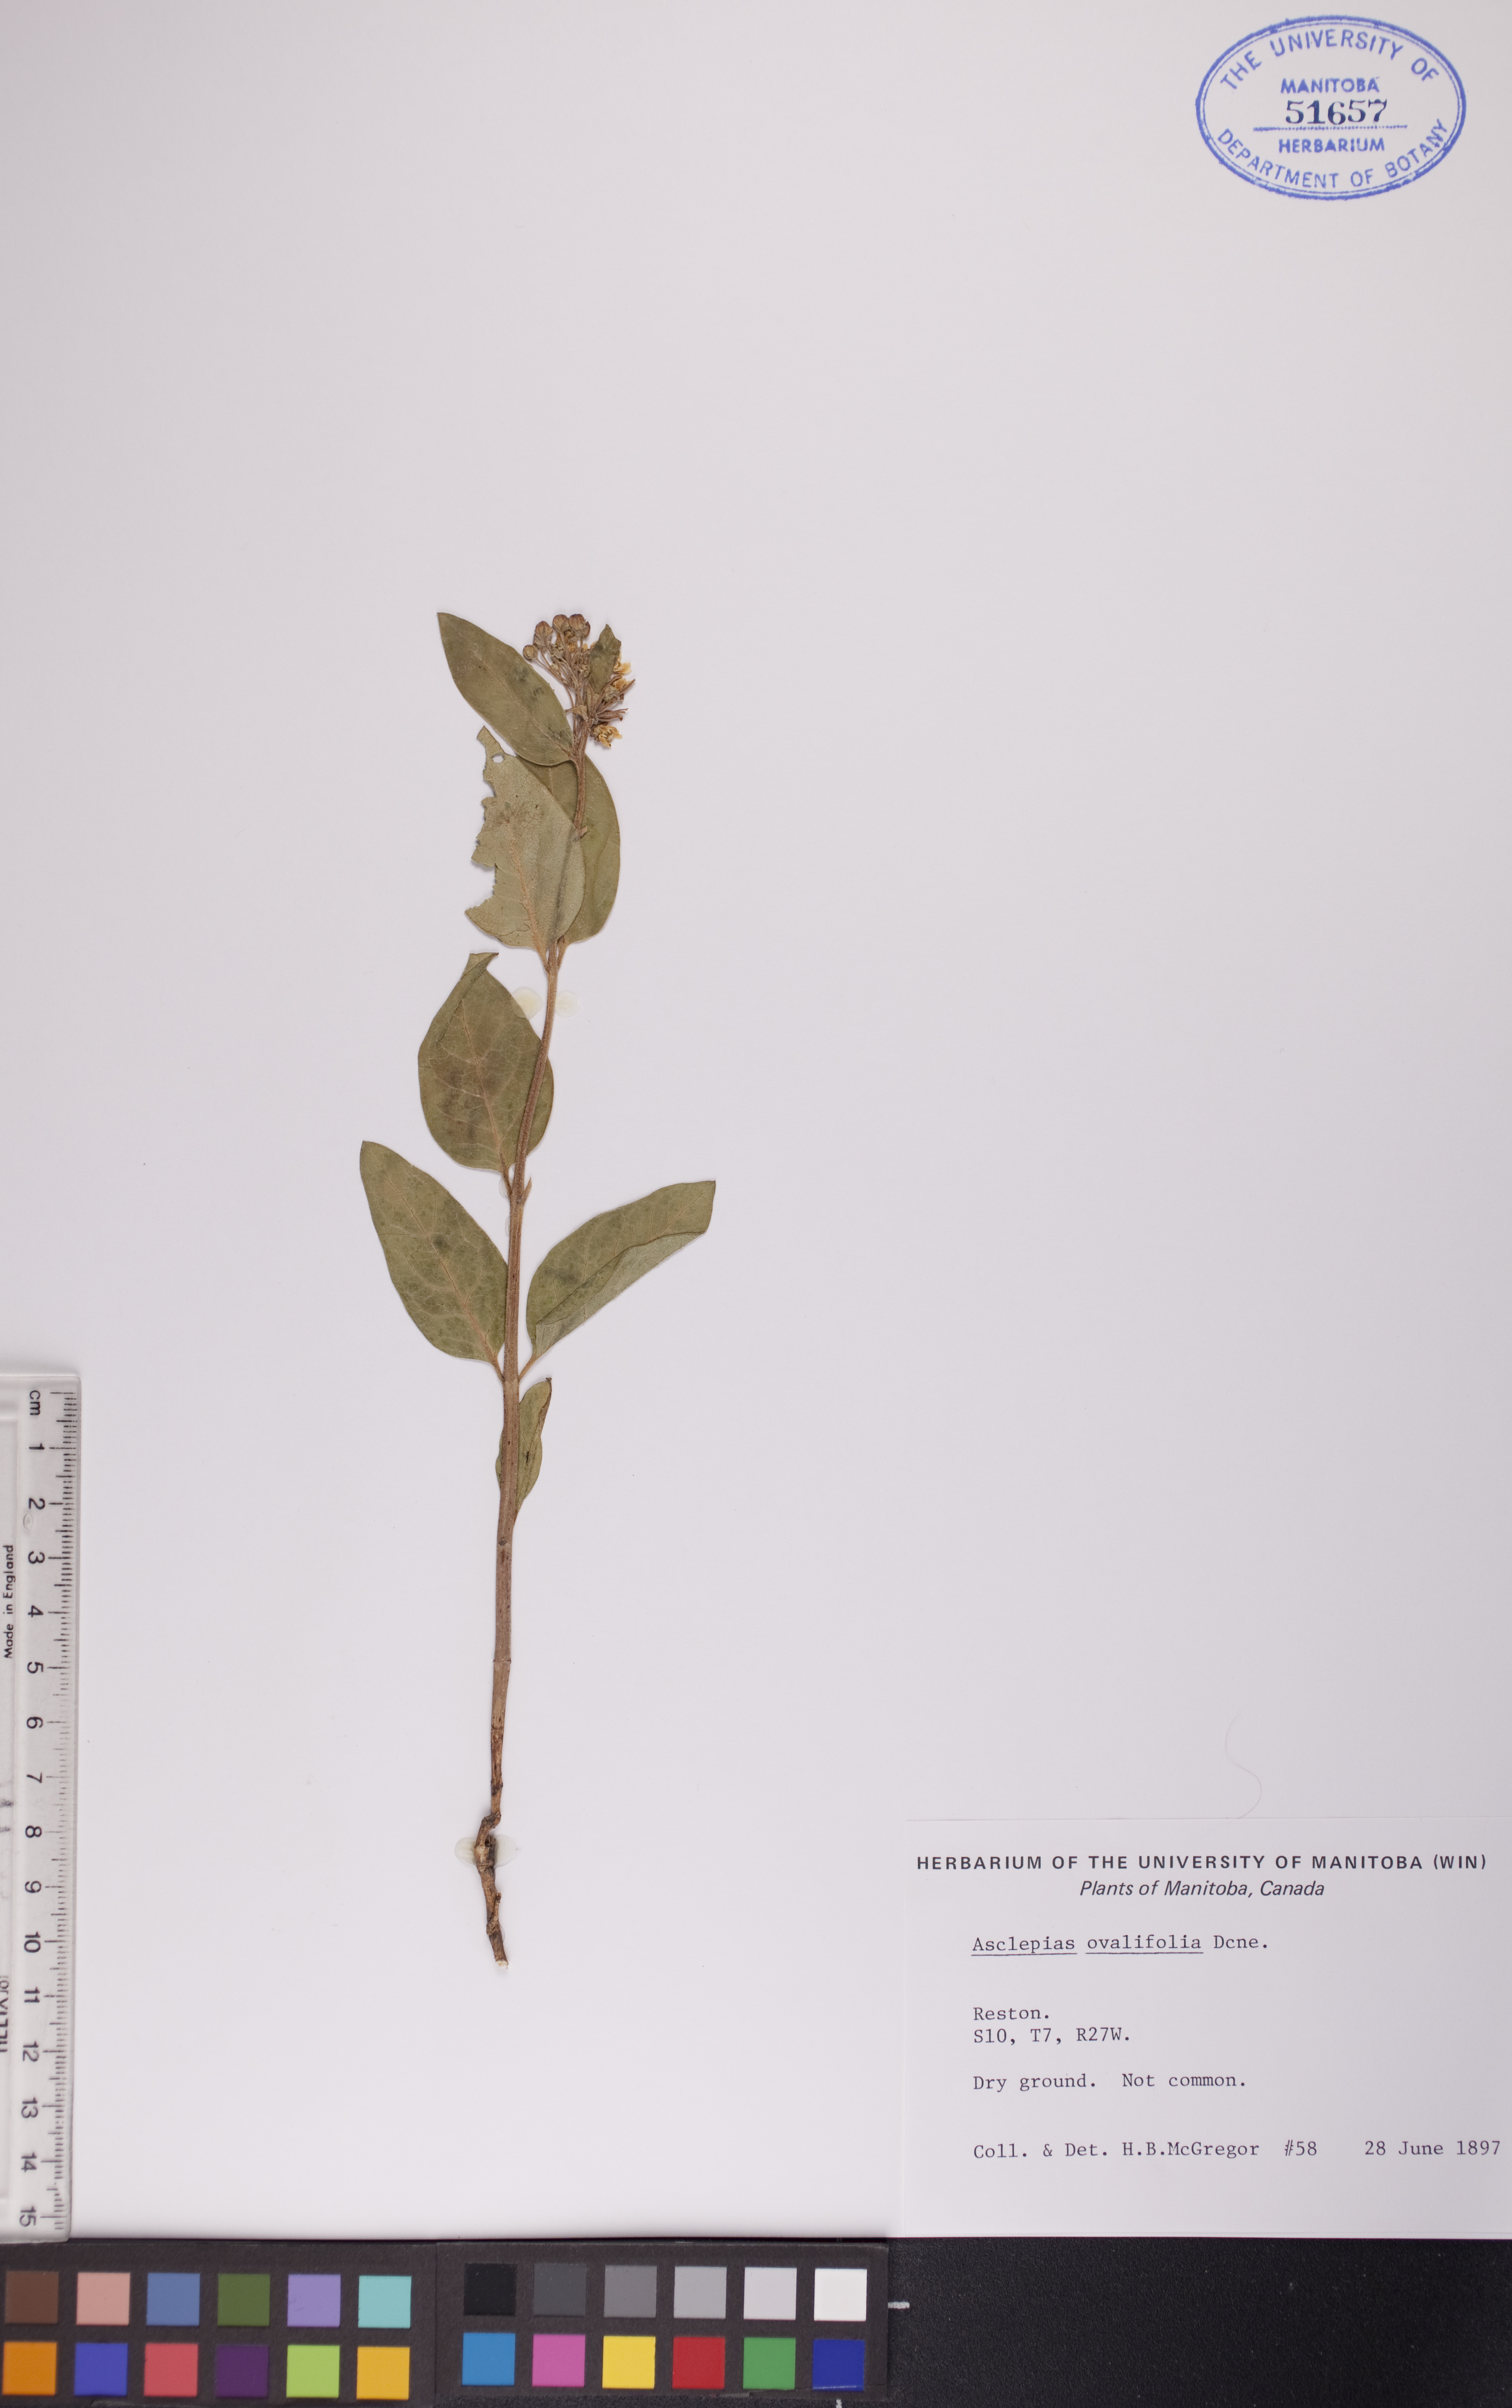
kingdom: Plantae
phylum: Tracheophyta
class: Magnoliopsida
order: Gentianales
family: Apocynaceae
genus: Asclepias
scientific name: Asclepias ovalifolia
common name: Dwarf milkweed
